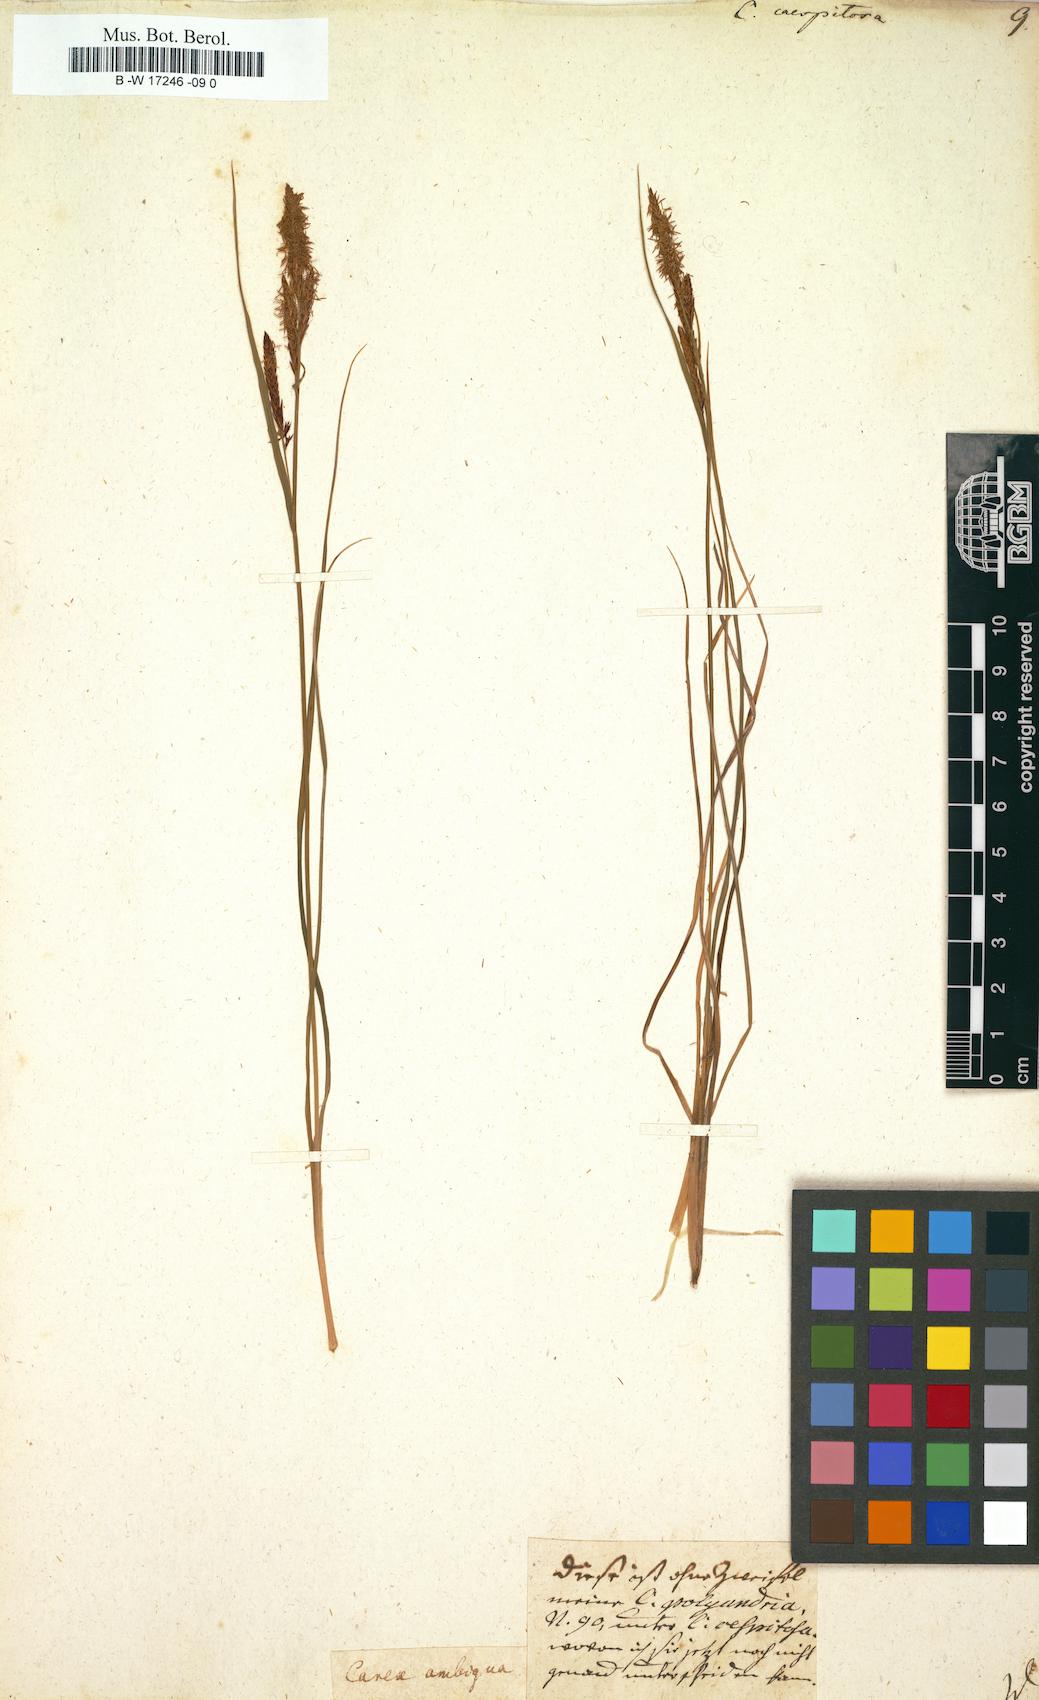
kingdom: Plantae
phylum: Tracheophyta
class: Liliopsida
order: Poales
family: Cyperaceae
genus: Carex
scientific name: Carex cespitosa
